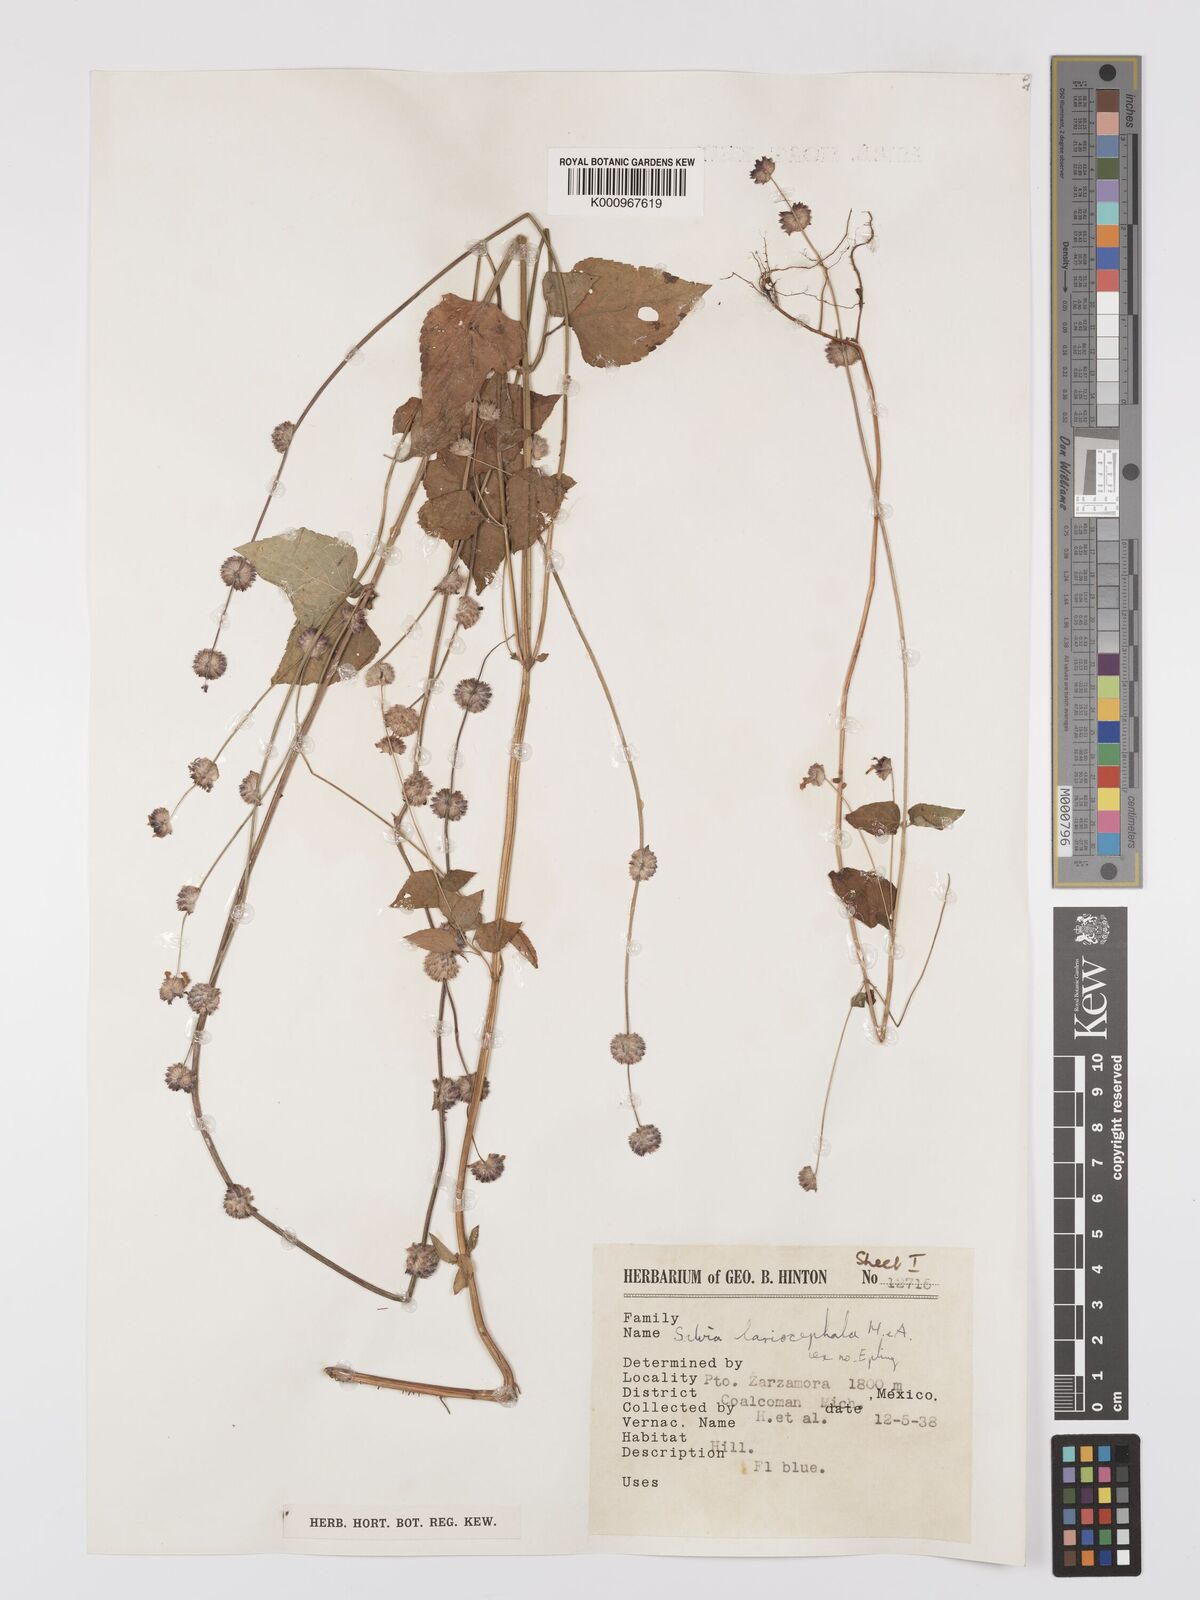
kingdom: Plantae
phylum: Tracheophyta
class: Magnoliopsida
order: Lamiales
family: Lamiaceae
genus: Salvia
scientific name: Salvia lasiocephala
